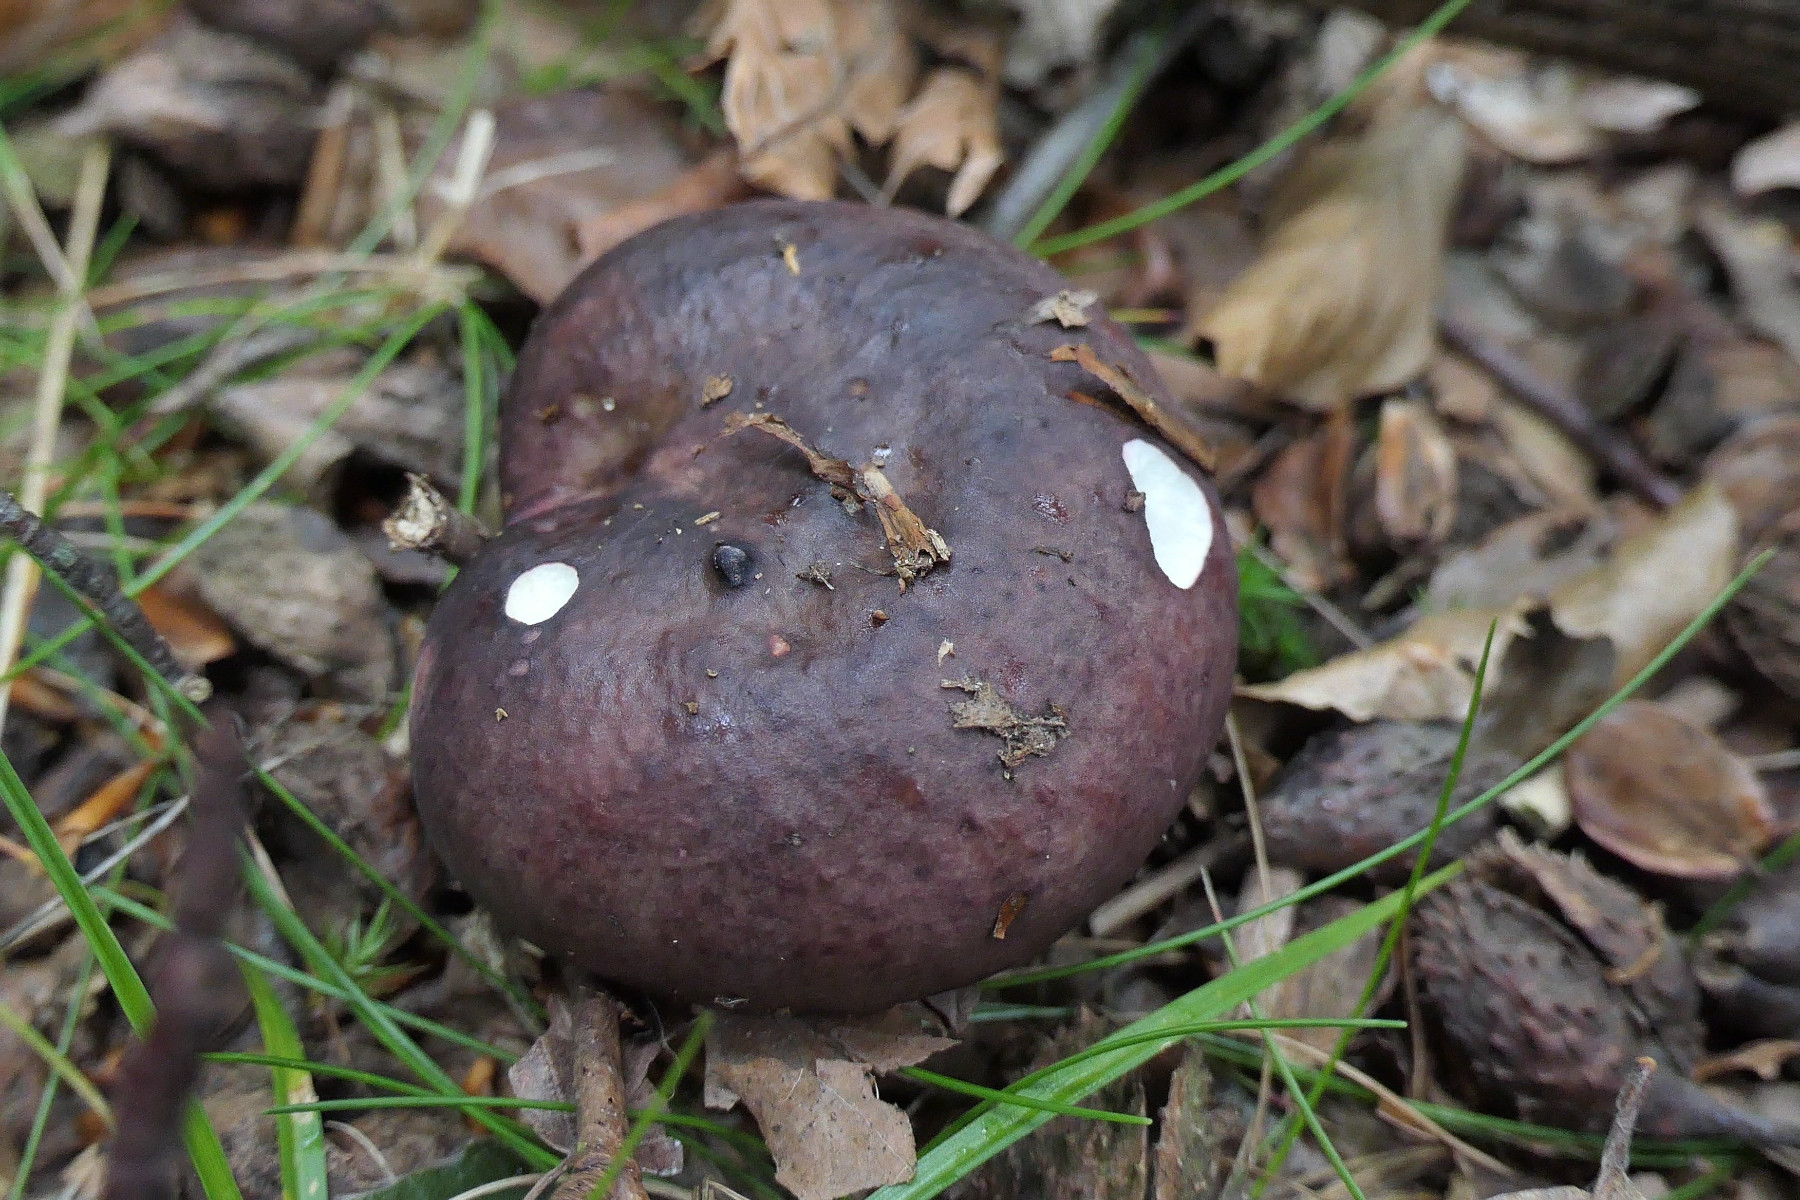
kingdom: Fungi
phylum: Basidiomycota
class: Agaricomycetes
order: Russulales
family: Russulaceae
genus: Russula
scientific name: Russula brunneoviolacea
